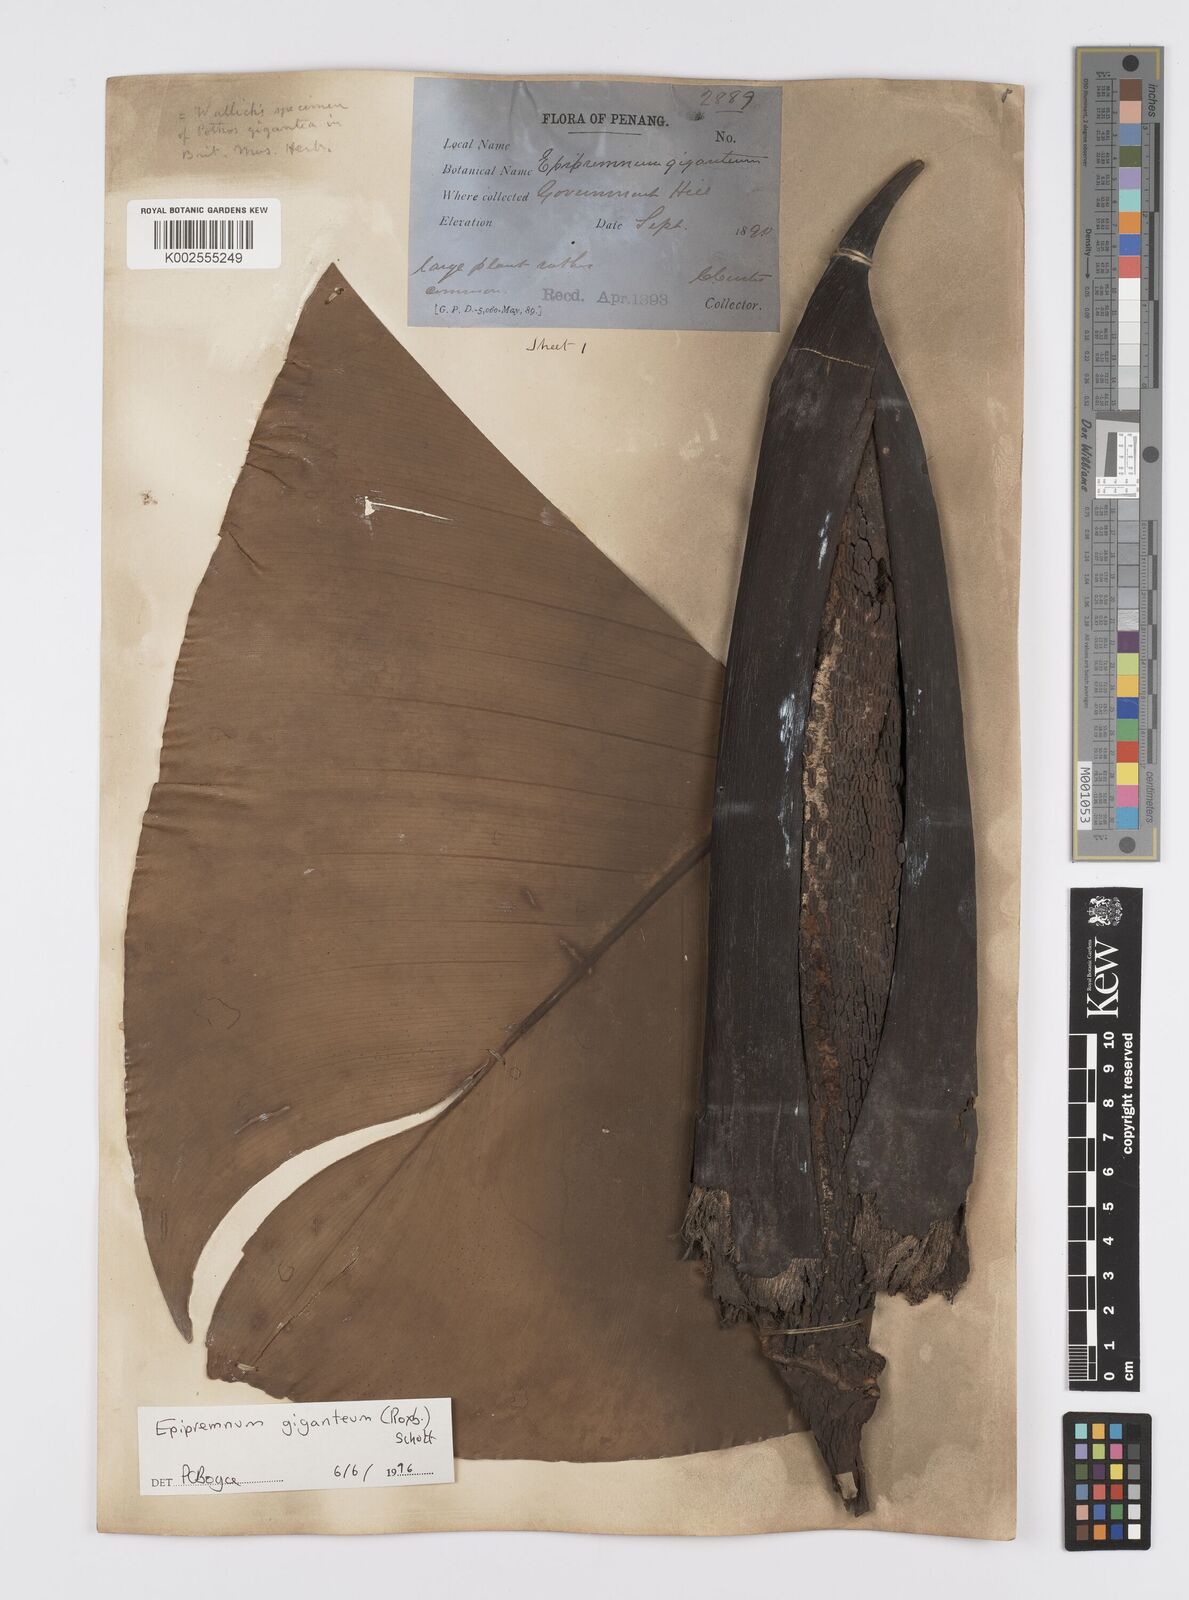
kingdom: Plantae
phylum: Tracheophyta
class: Liliopsida
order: Alismatales
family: Araceae
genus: Epipremnum
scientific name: Epipremnum giganteum
